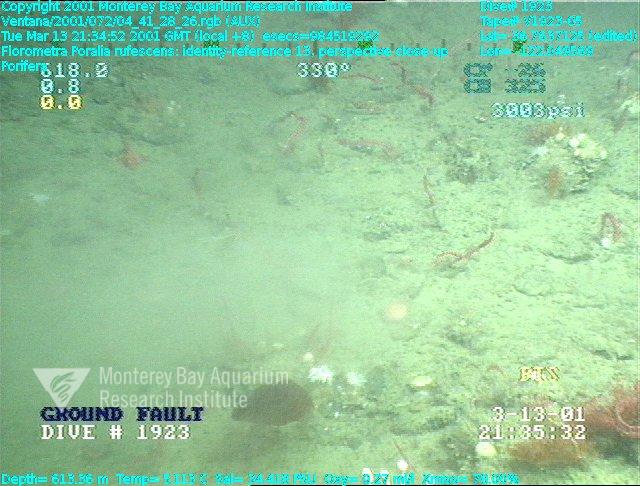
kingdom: Animalia
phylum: Porifera
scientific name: Porifera
